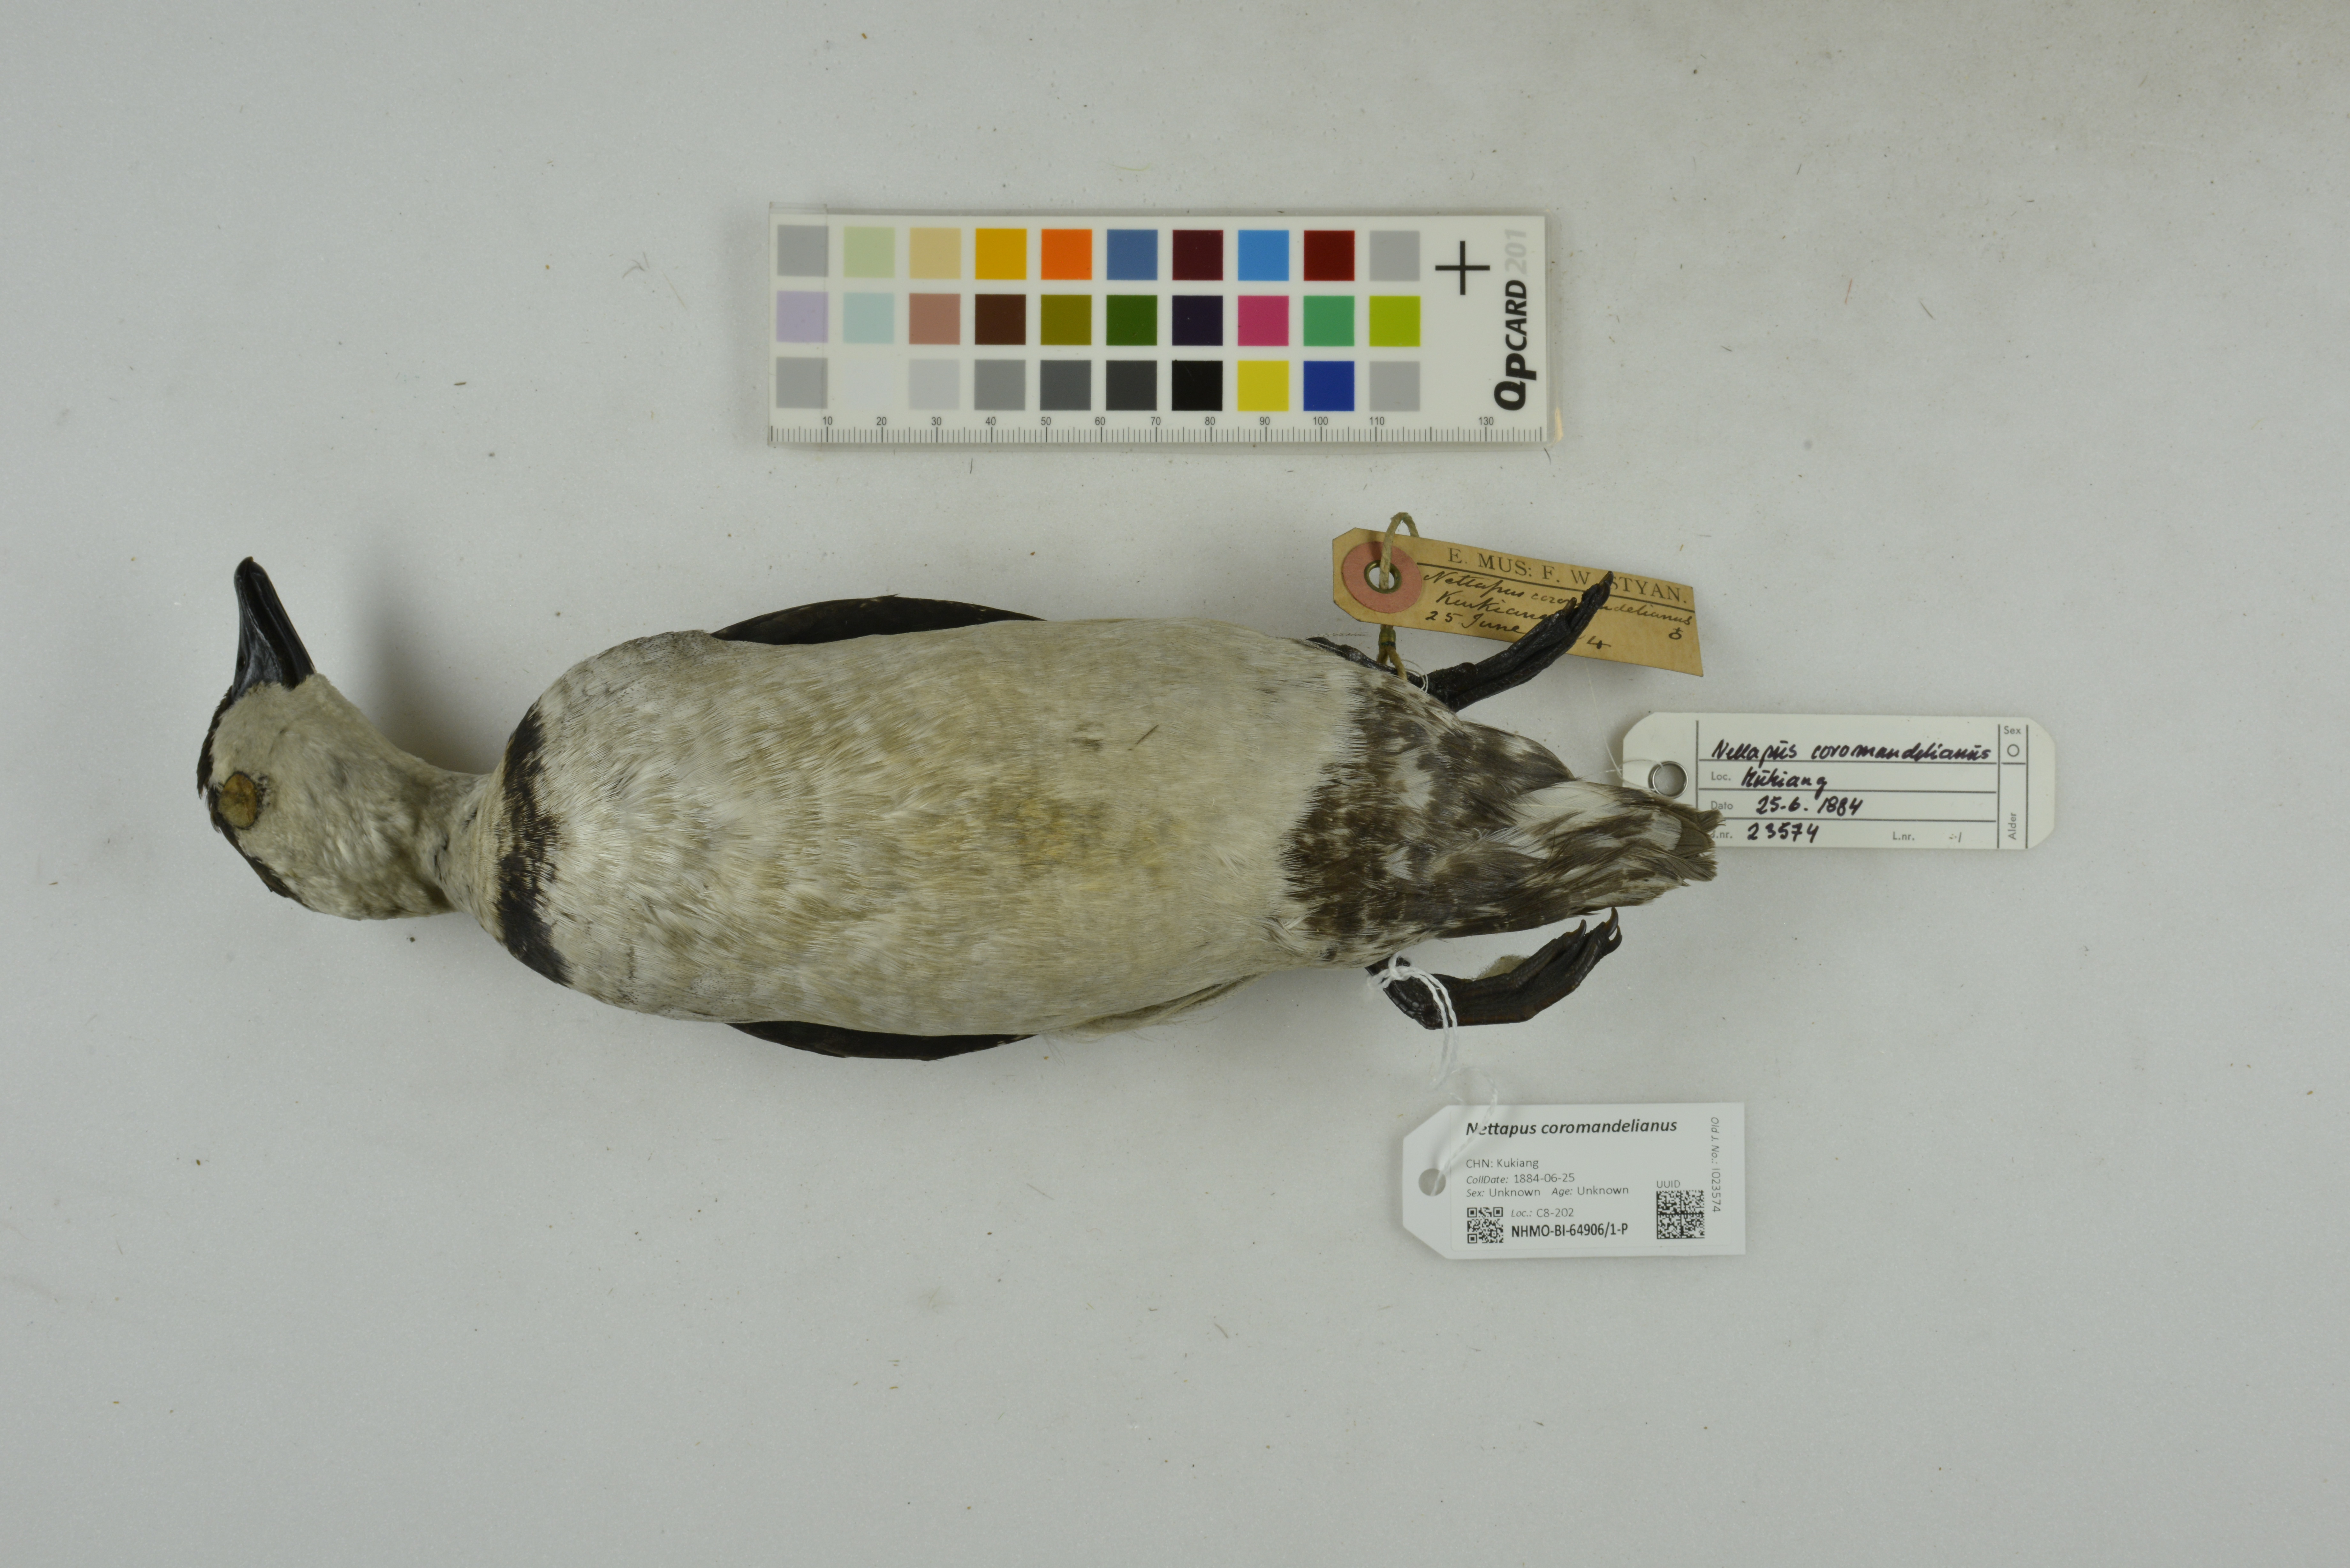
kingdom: Animalia
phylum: Chordata
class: Aves
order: Anseriformes
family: Anatidae
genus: Nettapus
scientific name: Nettapus coromandelianus
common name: Cotton pygmy-goose
